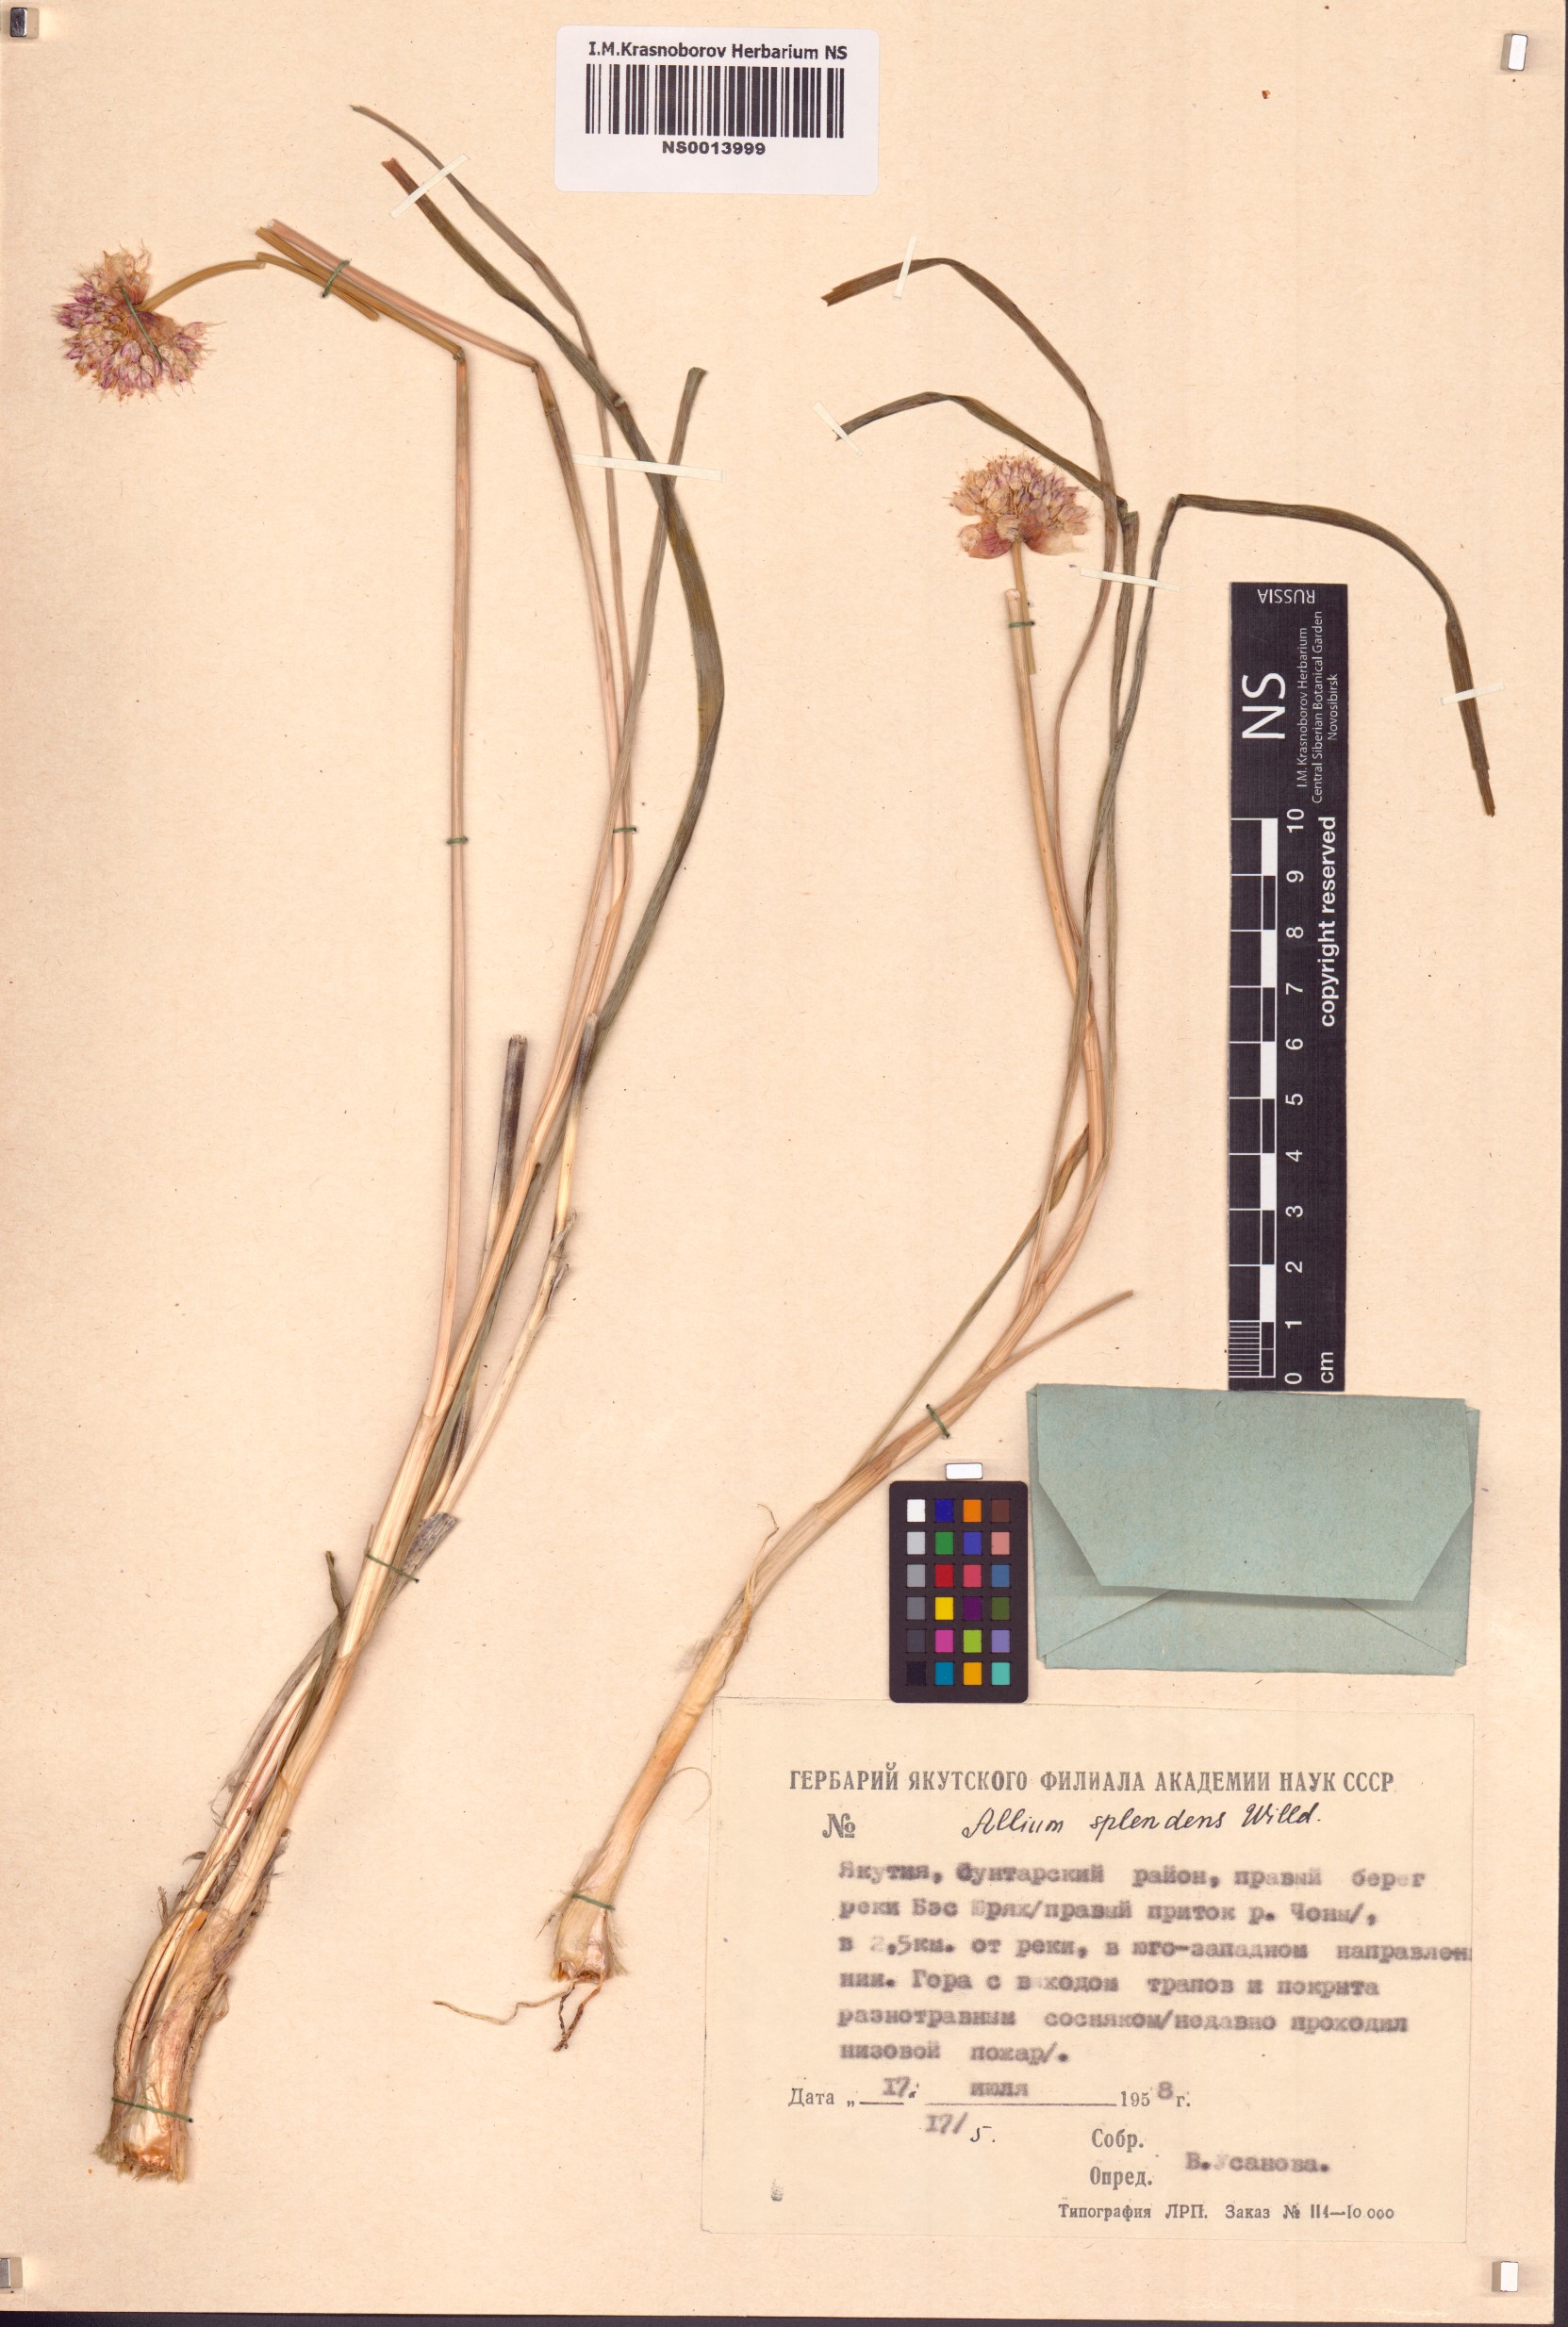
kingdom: Plantae
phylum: Tracheophyta
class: Liliopsida
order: Asparagales
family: Amaryllidaceae
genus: Allium
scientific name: Allium splendens
